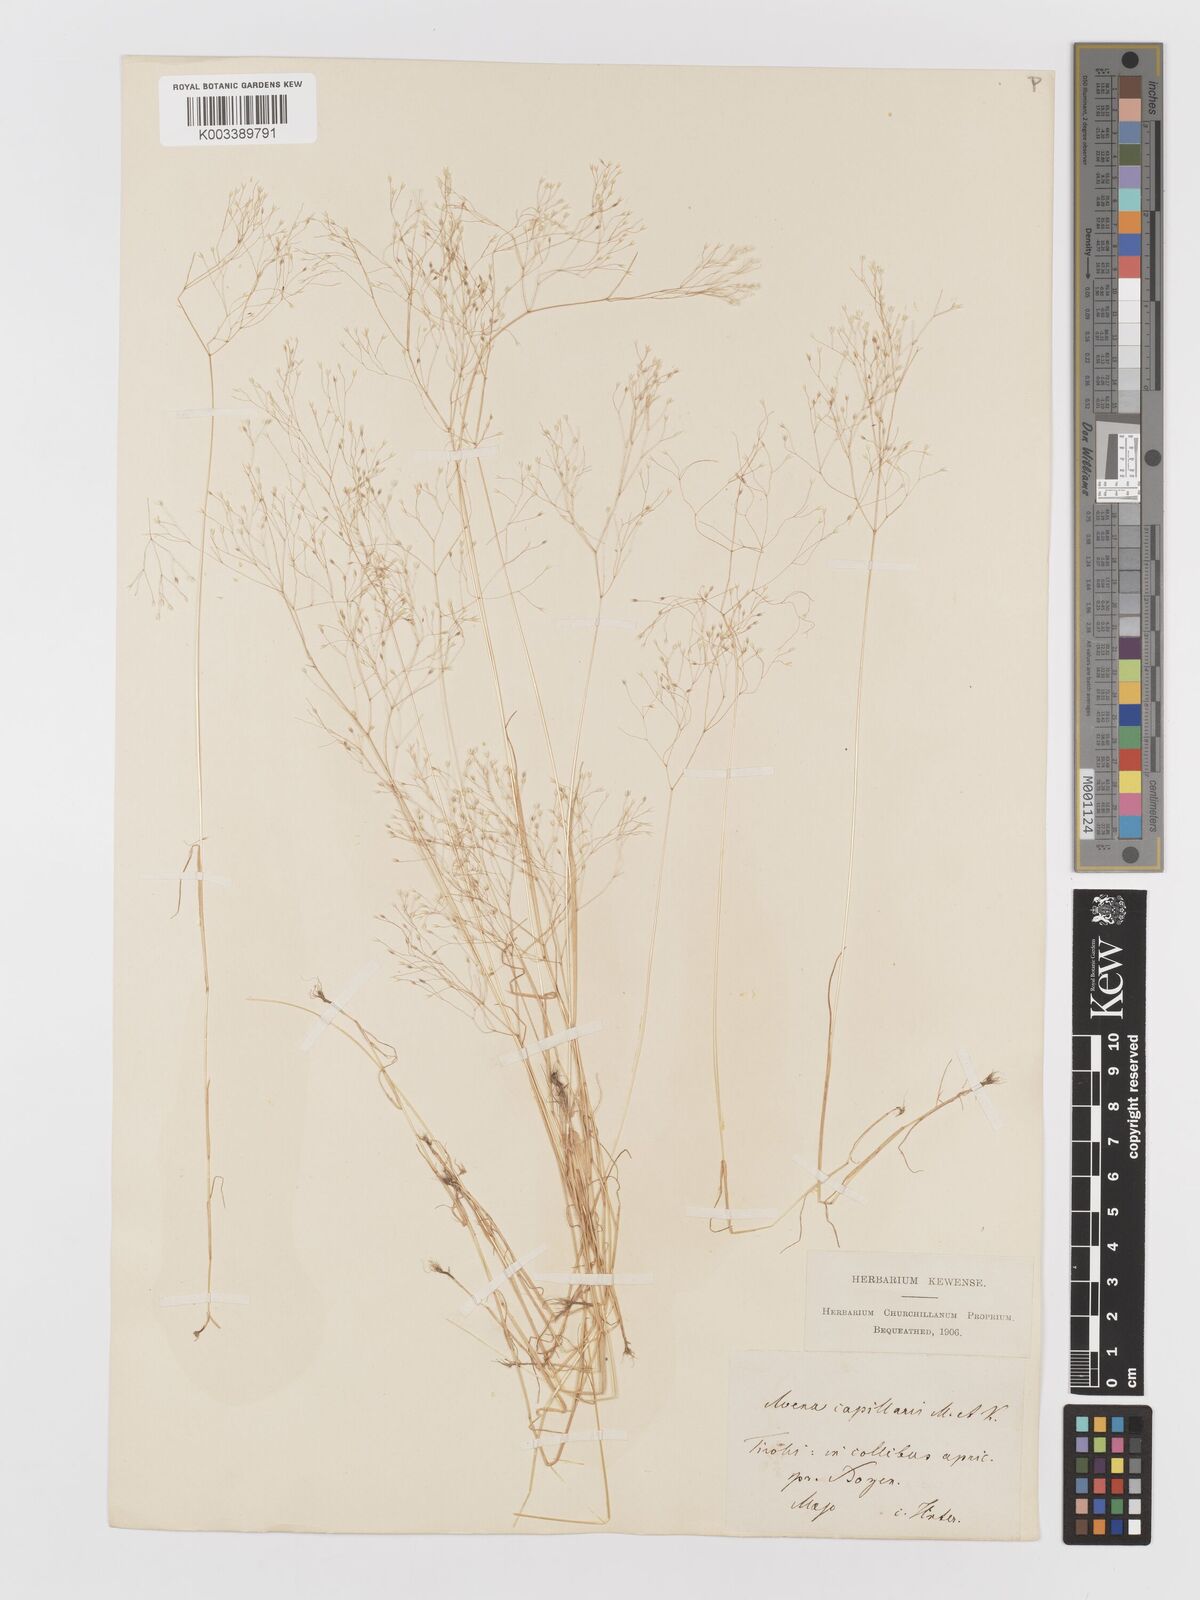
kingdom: Plantae
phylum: Tracheophyta
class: Liliopsida
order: Poales
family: Poaceae
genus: Aira
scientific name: Aira elegans
